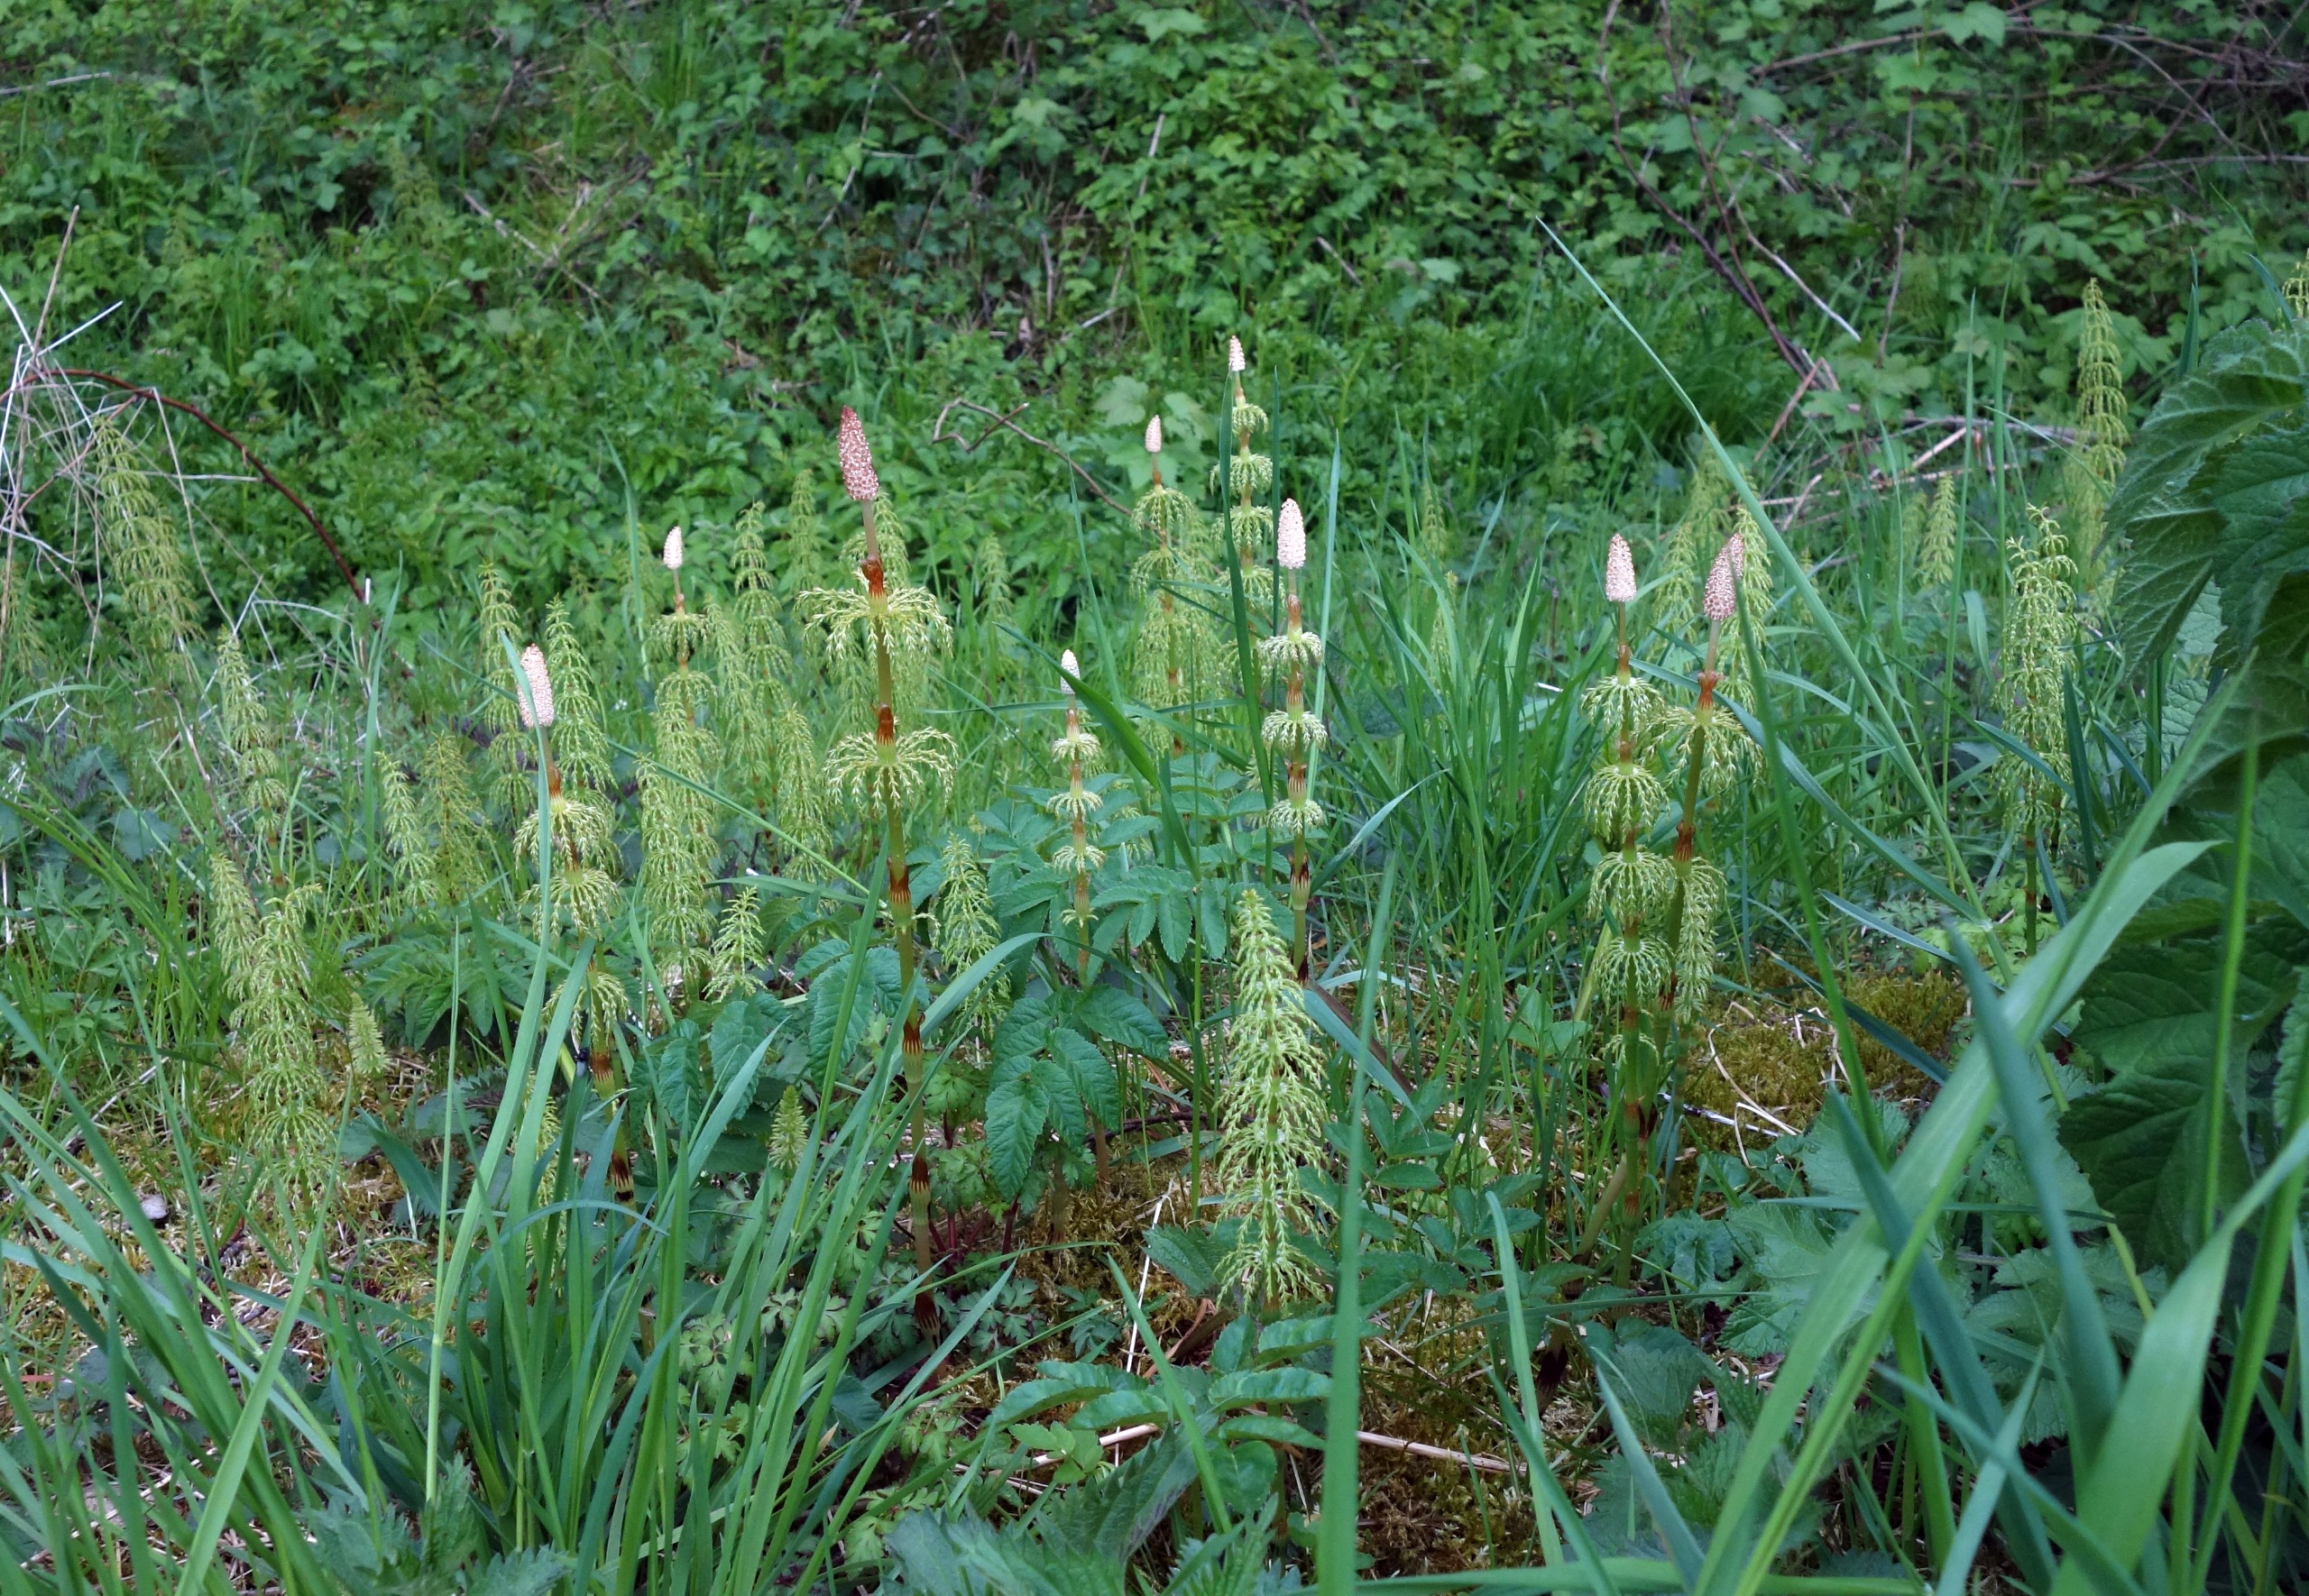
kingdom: Plantae
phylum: Tracheophyta
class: Polypodiopsida
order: Equisetales
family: Equisetaceae
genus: Equisetum
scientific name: Equisetum sylvaticum
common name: Skov-padderok
